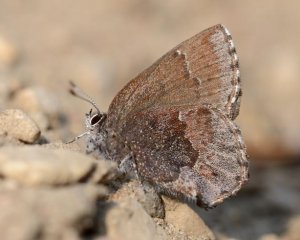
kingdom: Animalia
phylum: Arthropoda
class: Insecta
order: Lepidoptera
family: Lycaenidae
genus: Callophrys
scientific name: Callophrys polios
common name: Hoary Elfin
